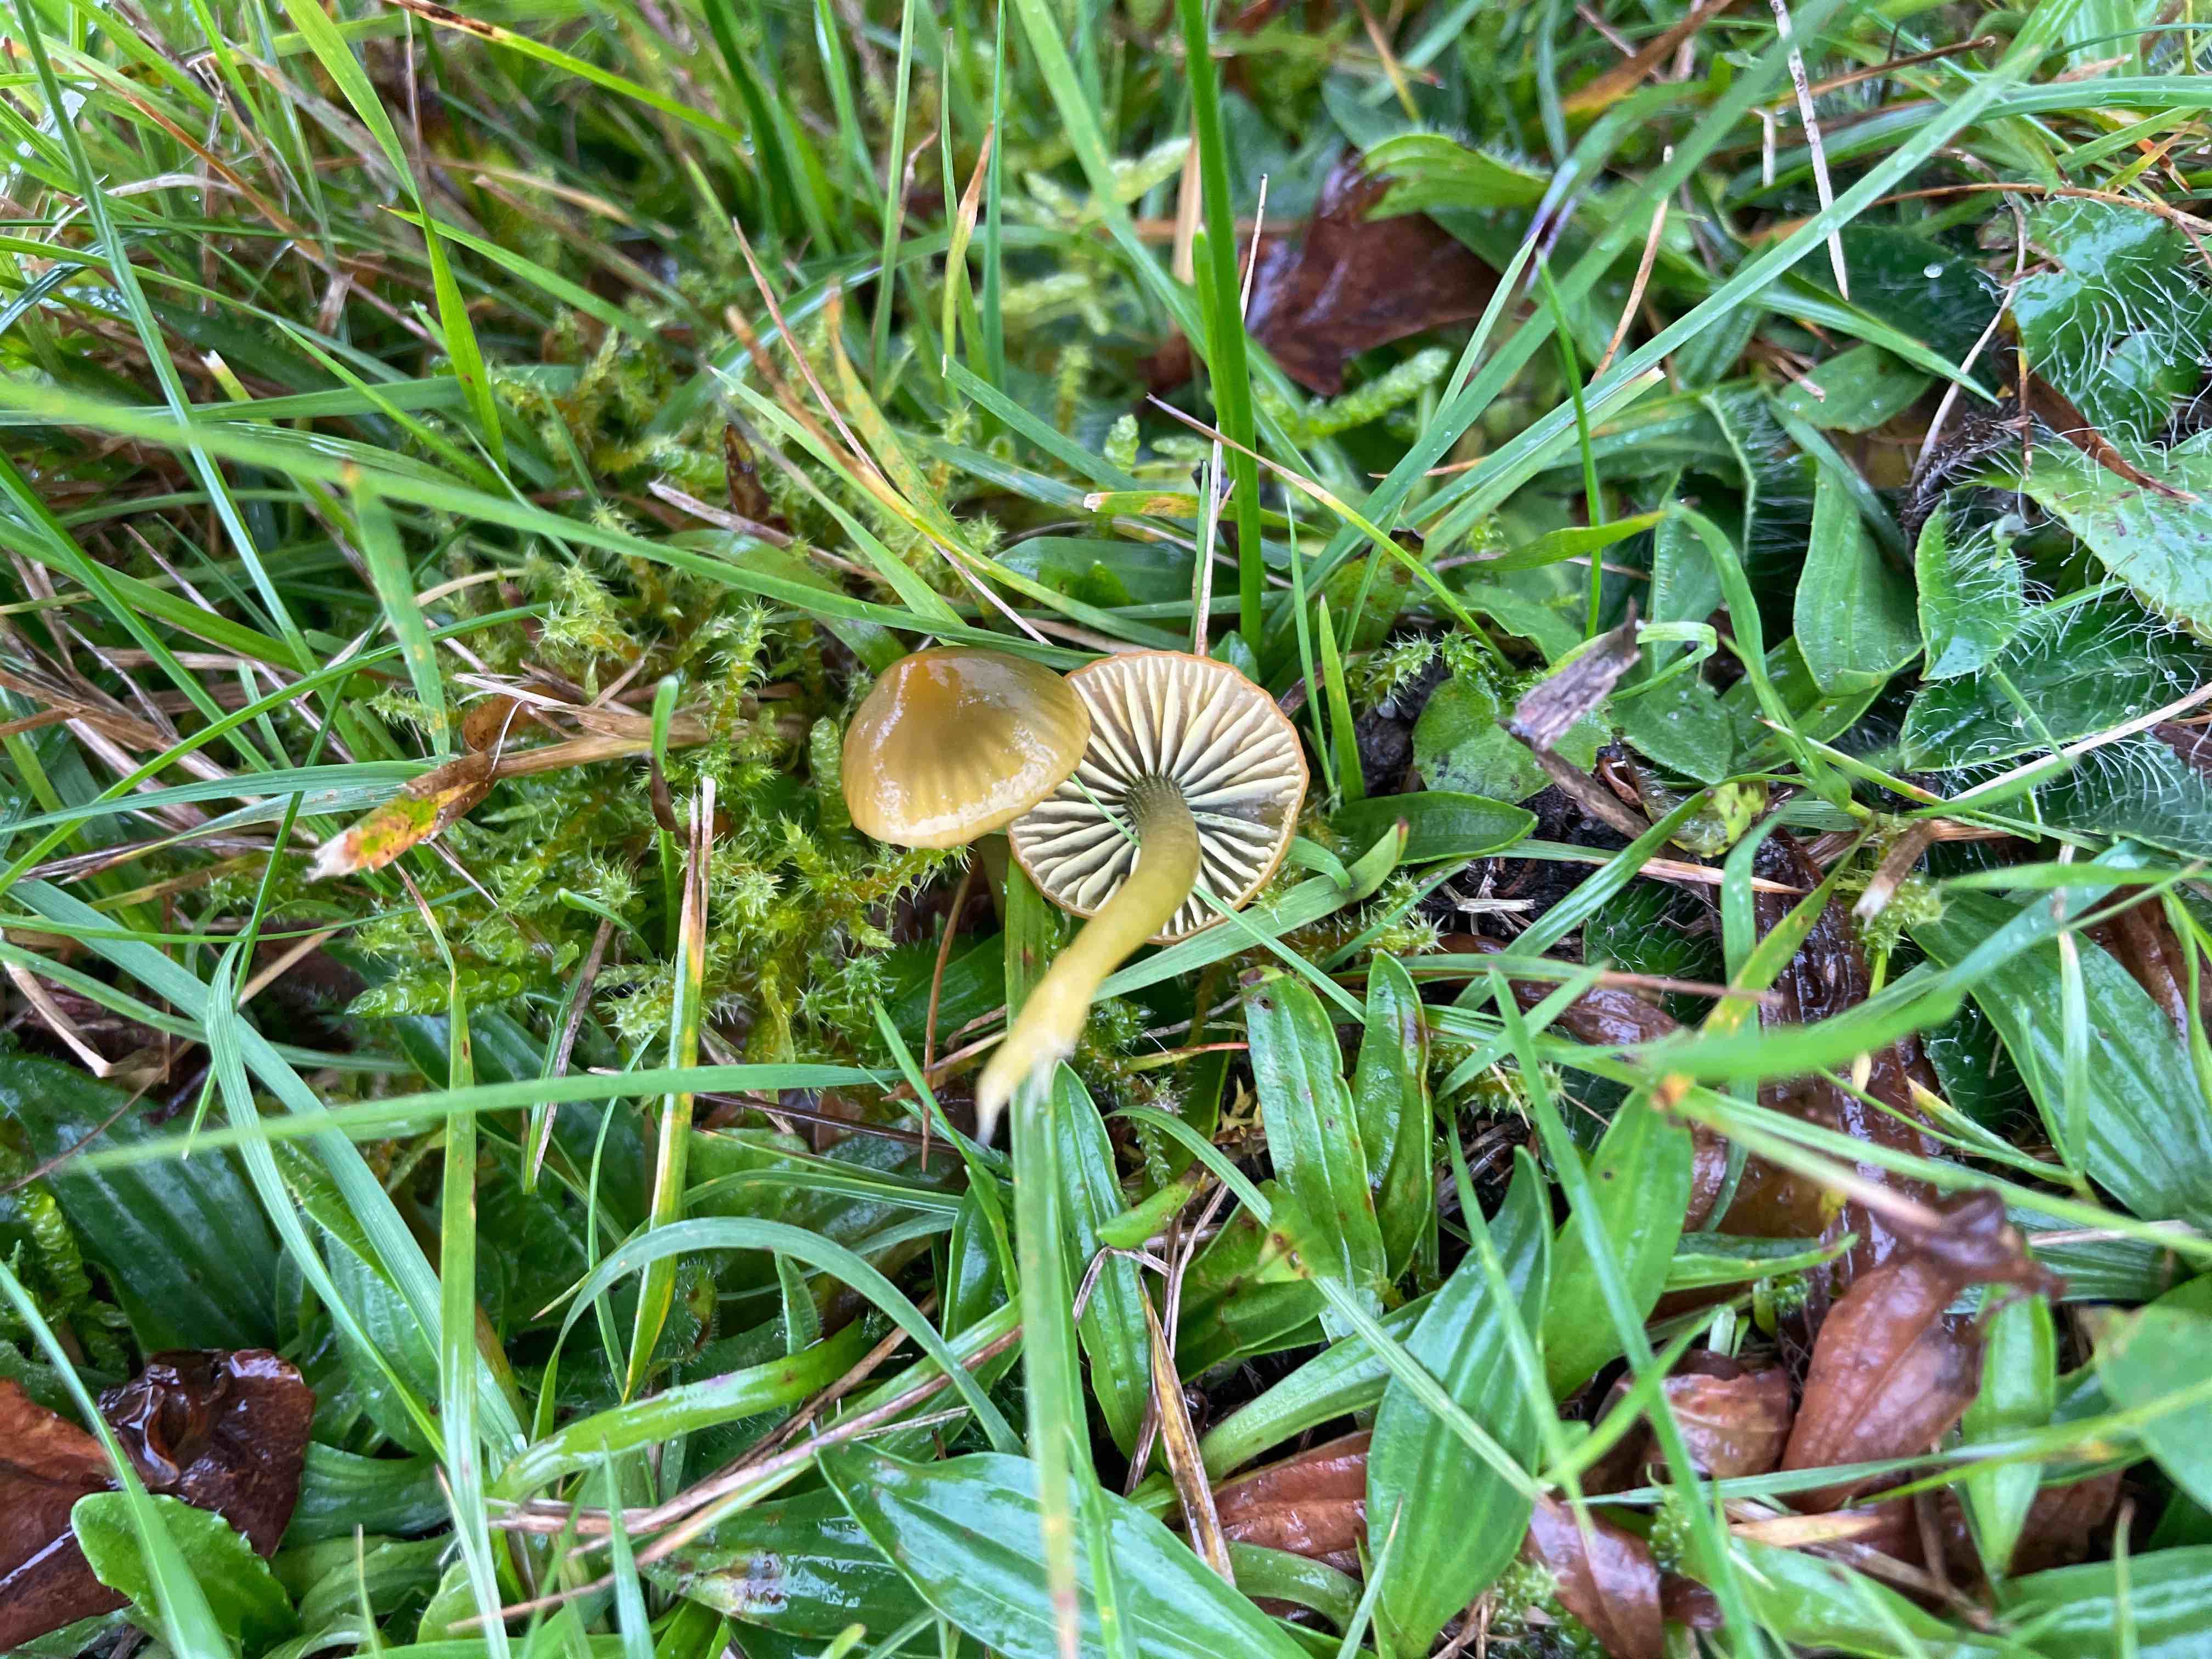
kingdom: Fungi
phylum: Basidiomycota
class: Agaricomycetes
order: Agaricales
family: Hygrophoraceae
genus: Gliophorus
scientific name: Gliophorus psittacinus
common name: papegøje-vokshat
